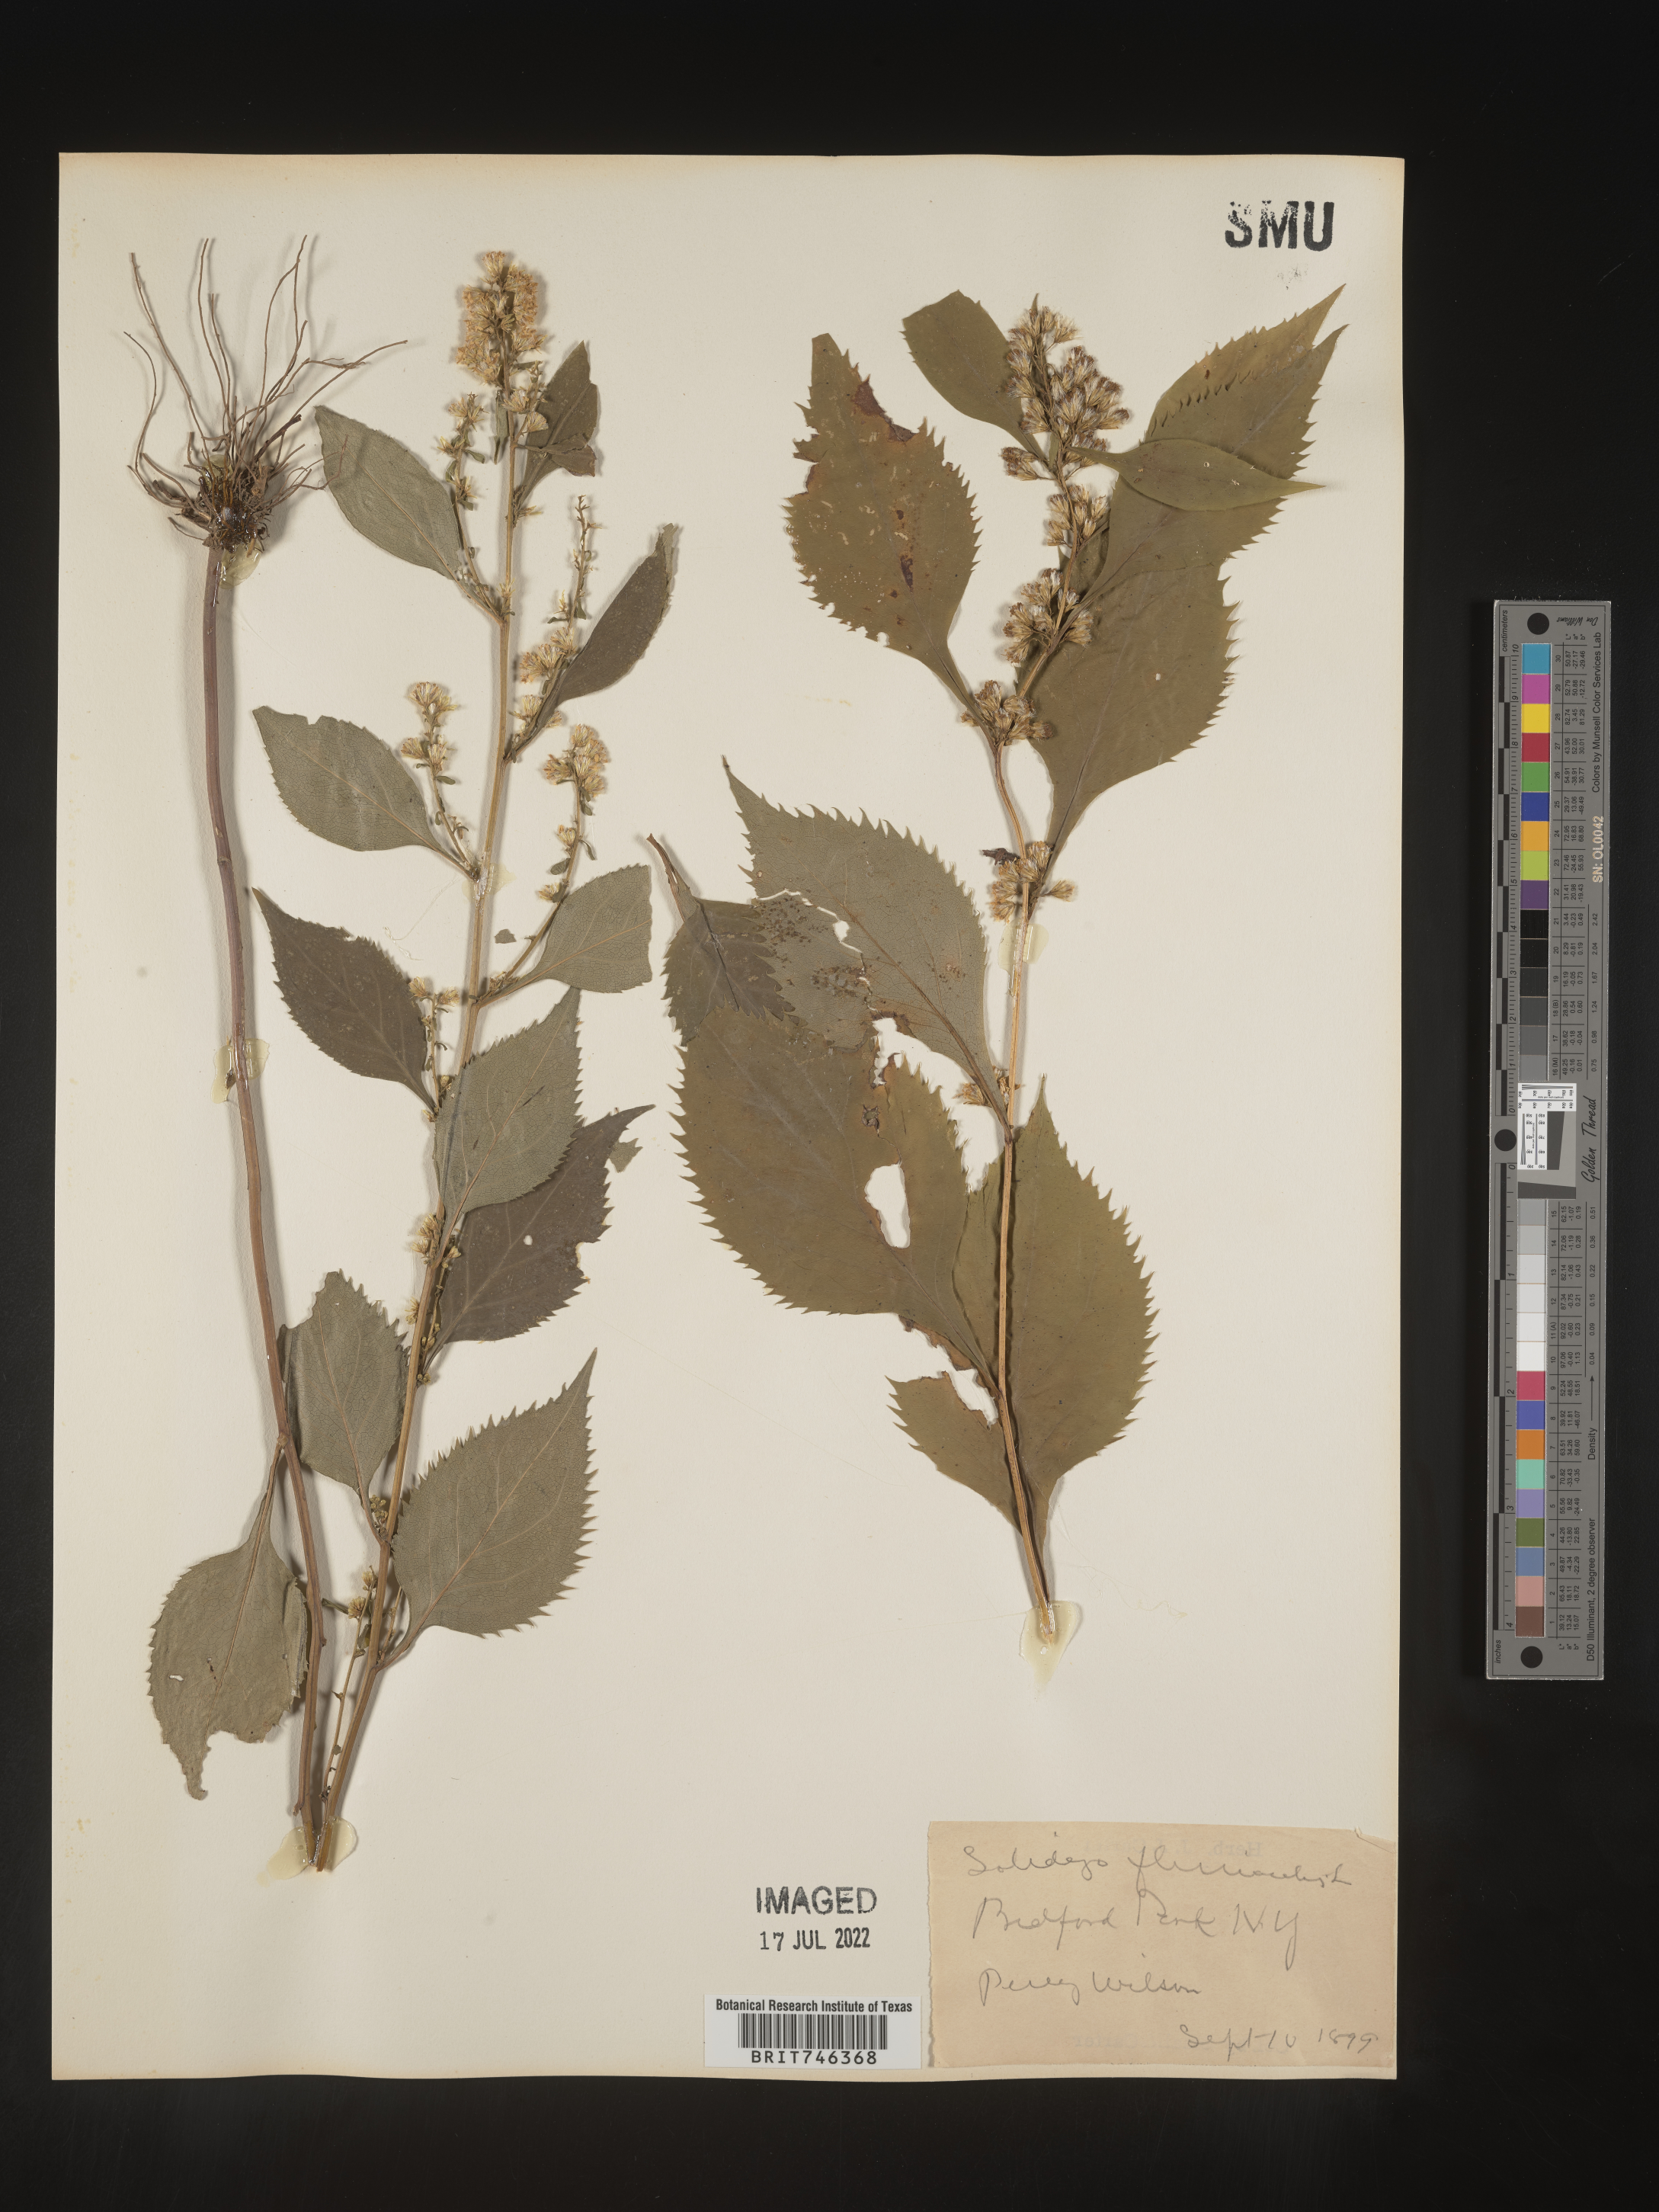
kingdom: Plantae
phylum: Tracheophyta
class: Magnoliopsida
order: Asterales
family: Asteraceae
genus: Solidago
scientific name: Solidago flexicaulis
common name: Zig-zag goldenrod
